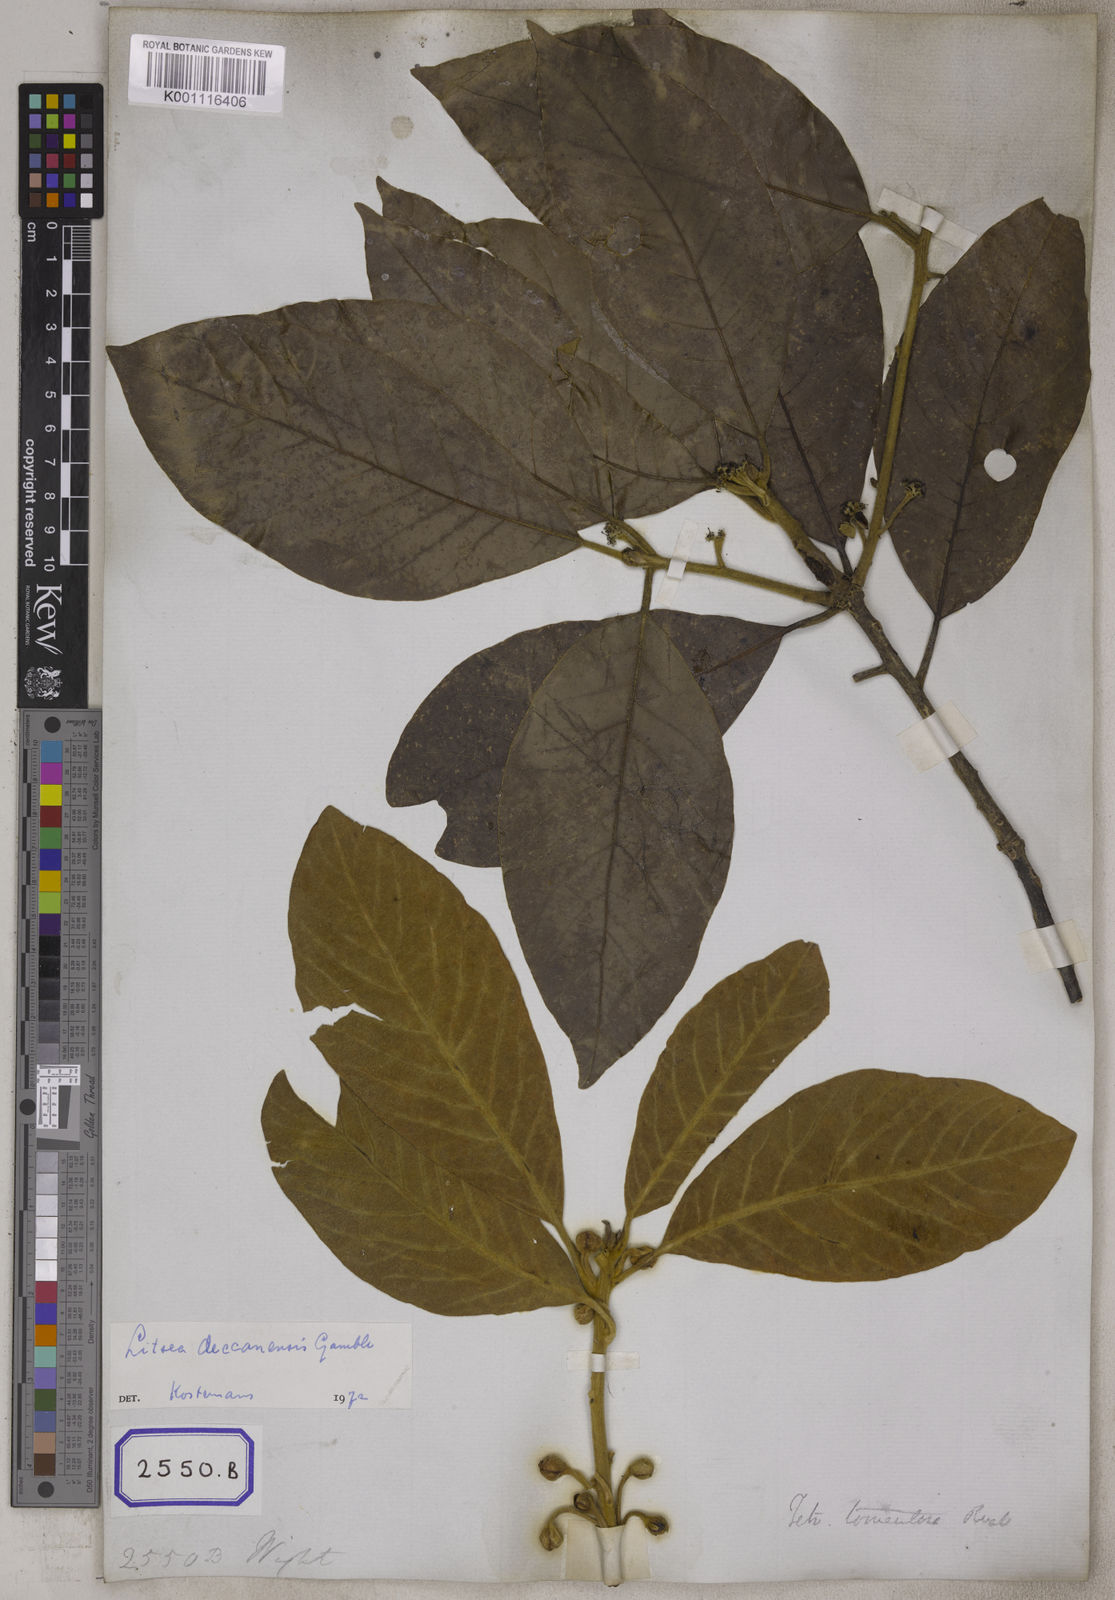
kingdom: Plantae
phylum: Tracheophyta
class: Magnoliopsida
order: Laurales
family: Lauraceae
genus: Litsea
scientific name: Litsea
